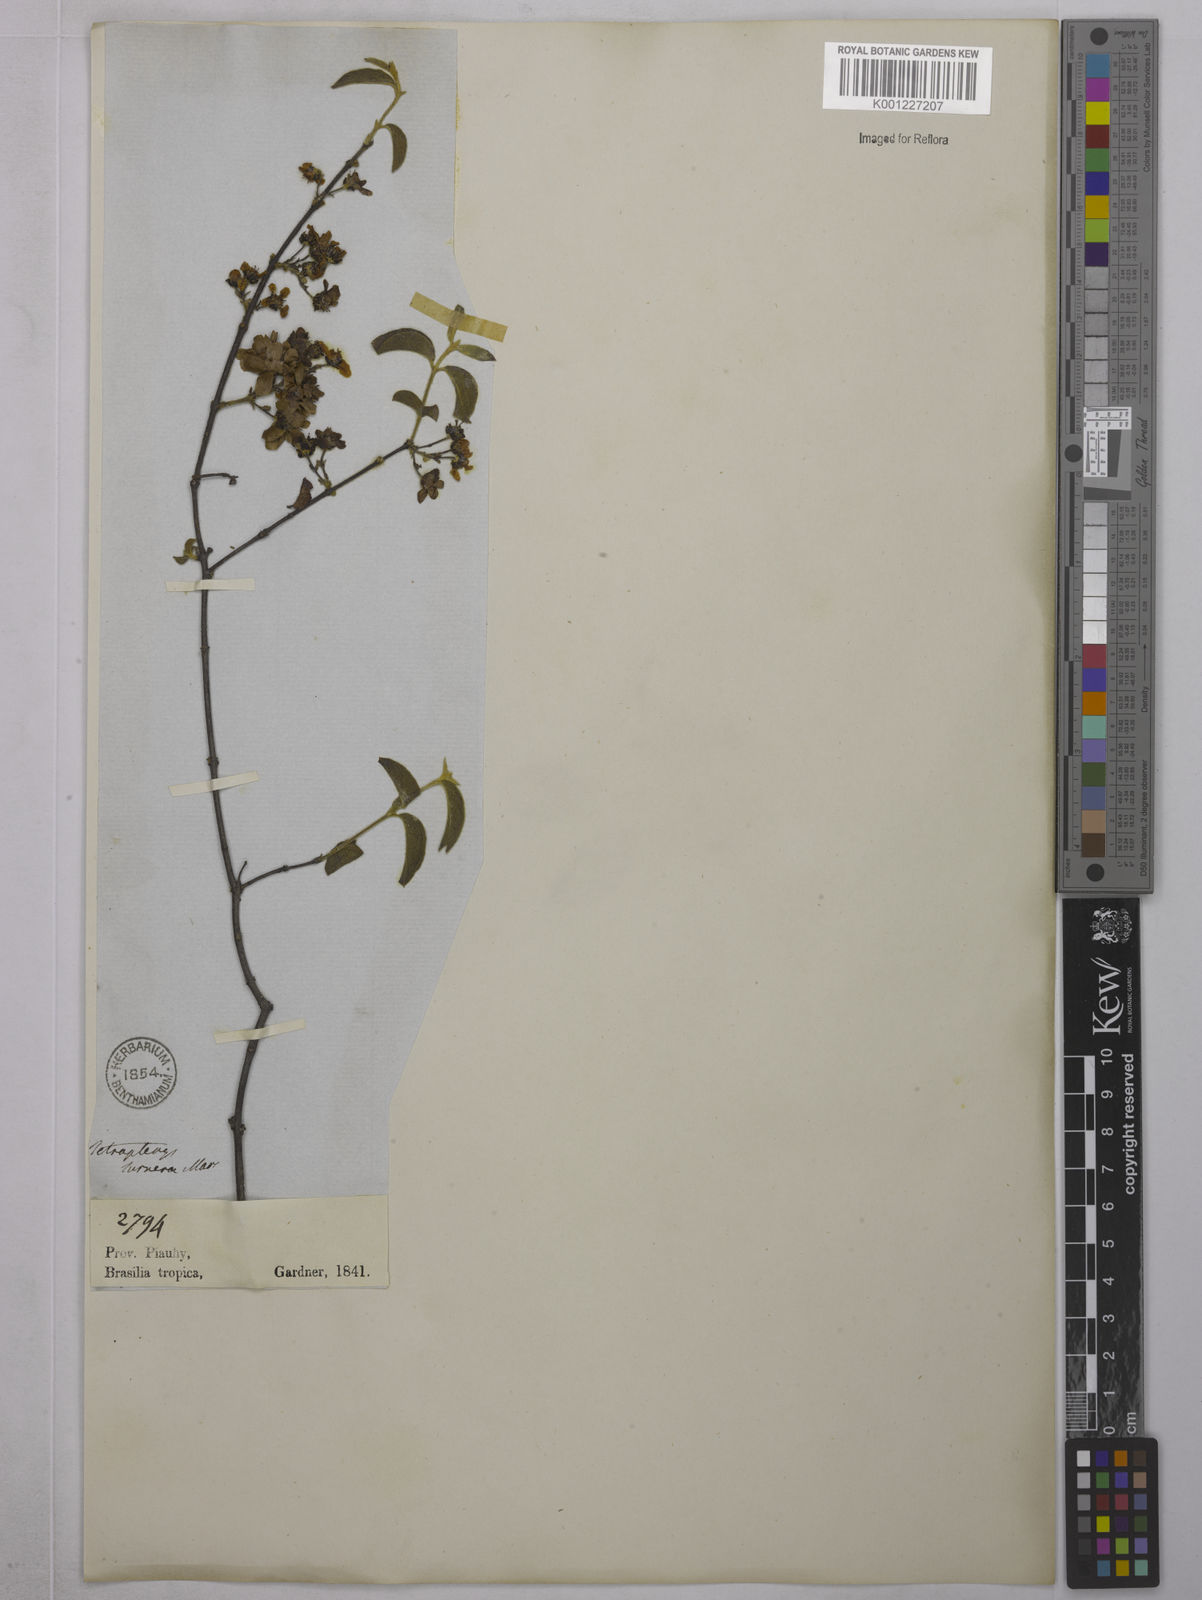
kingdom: Plantae
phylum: Tracheophyta
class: Magnoliopsida
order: Malpighiales
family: Malpighiaceae
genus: Glicophyllum
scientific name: Glicophyllum turnerae
